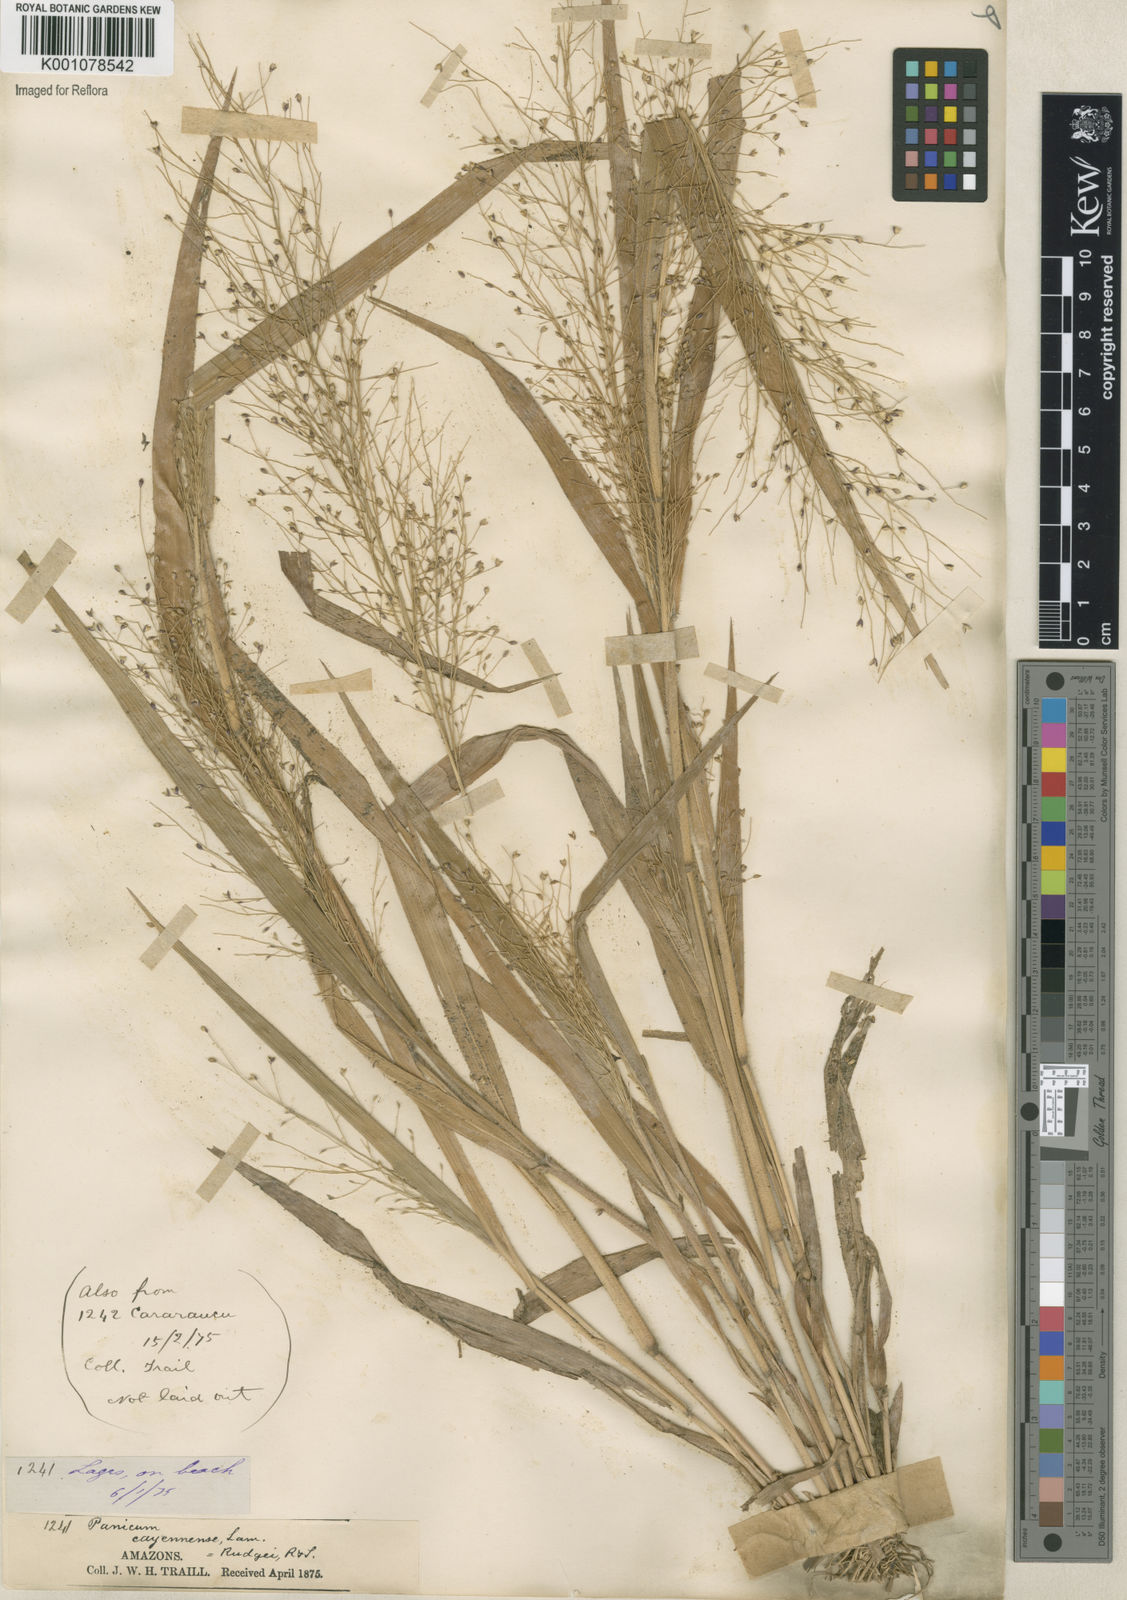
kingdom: Plantae
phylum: Tracheophyta
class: Liliopsida
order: Poales
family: Poaceae
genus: Panicum
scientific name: Panicum cayennense
